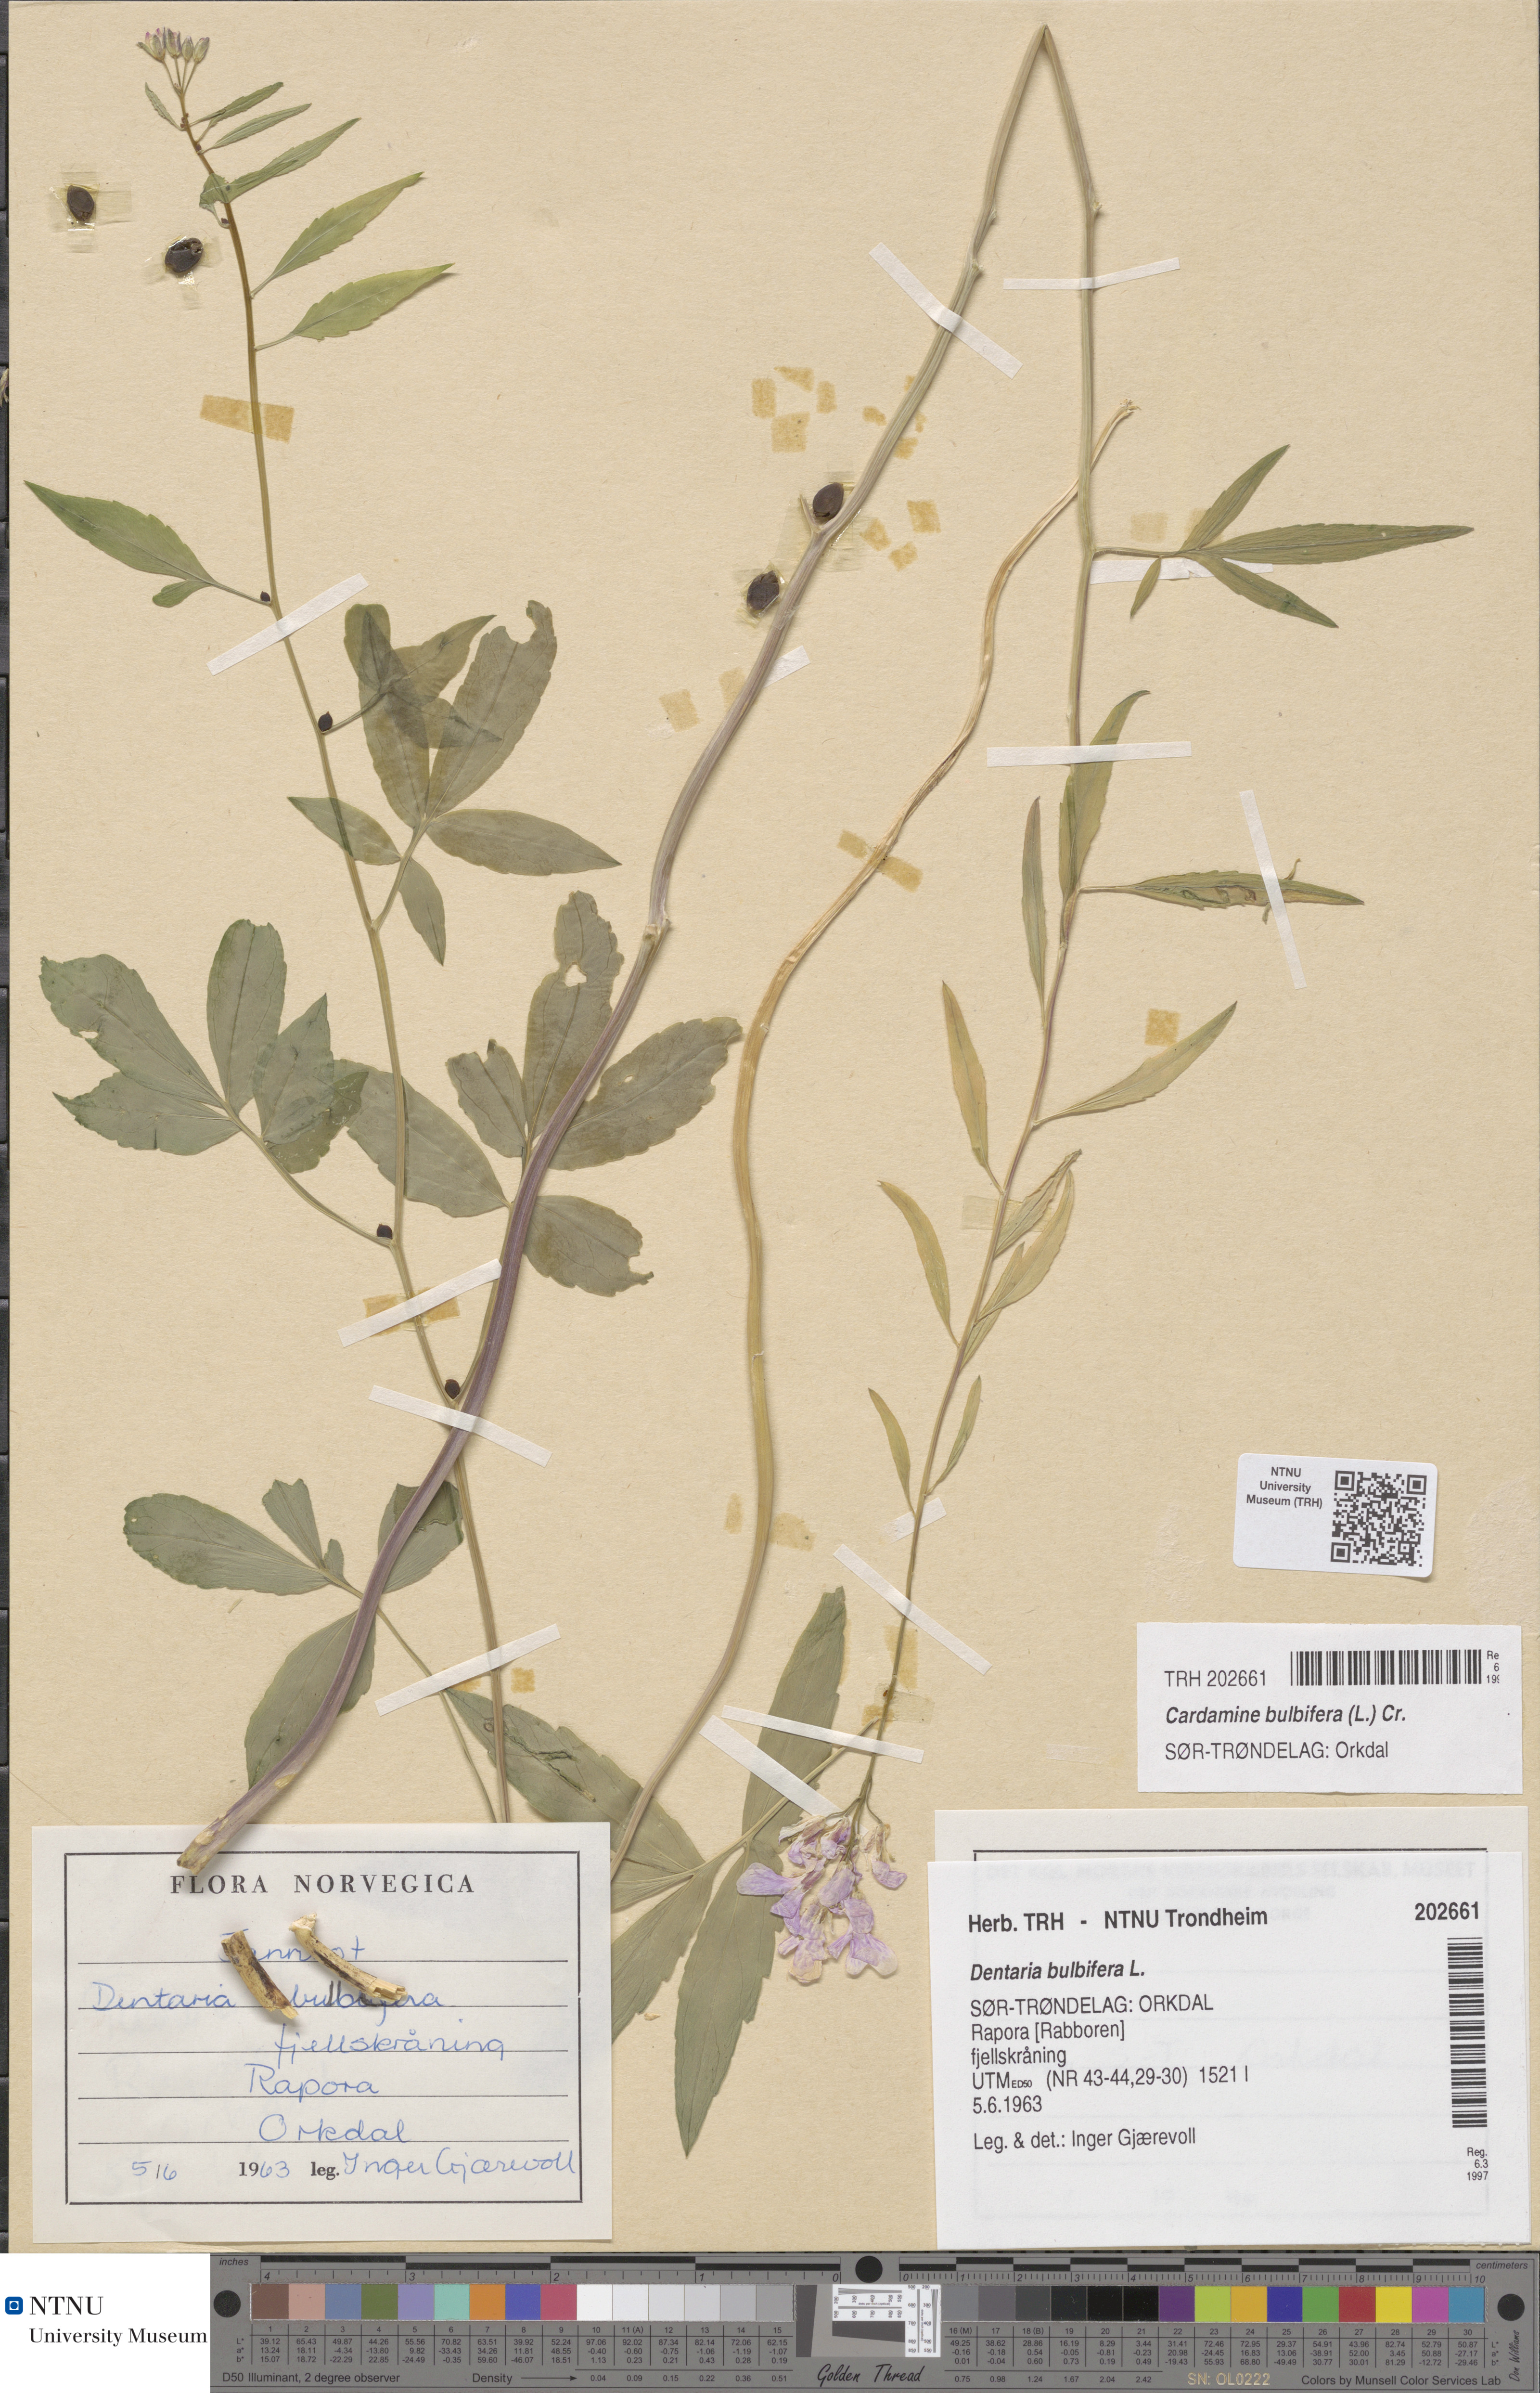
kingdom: Plantae
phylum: Tracheophyta
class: Magnoliopsida
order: Brassicales
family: Brassicaceae
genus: Cardamine
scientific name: Cardamine bulbifera
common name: Coralroot bittercress
